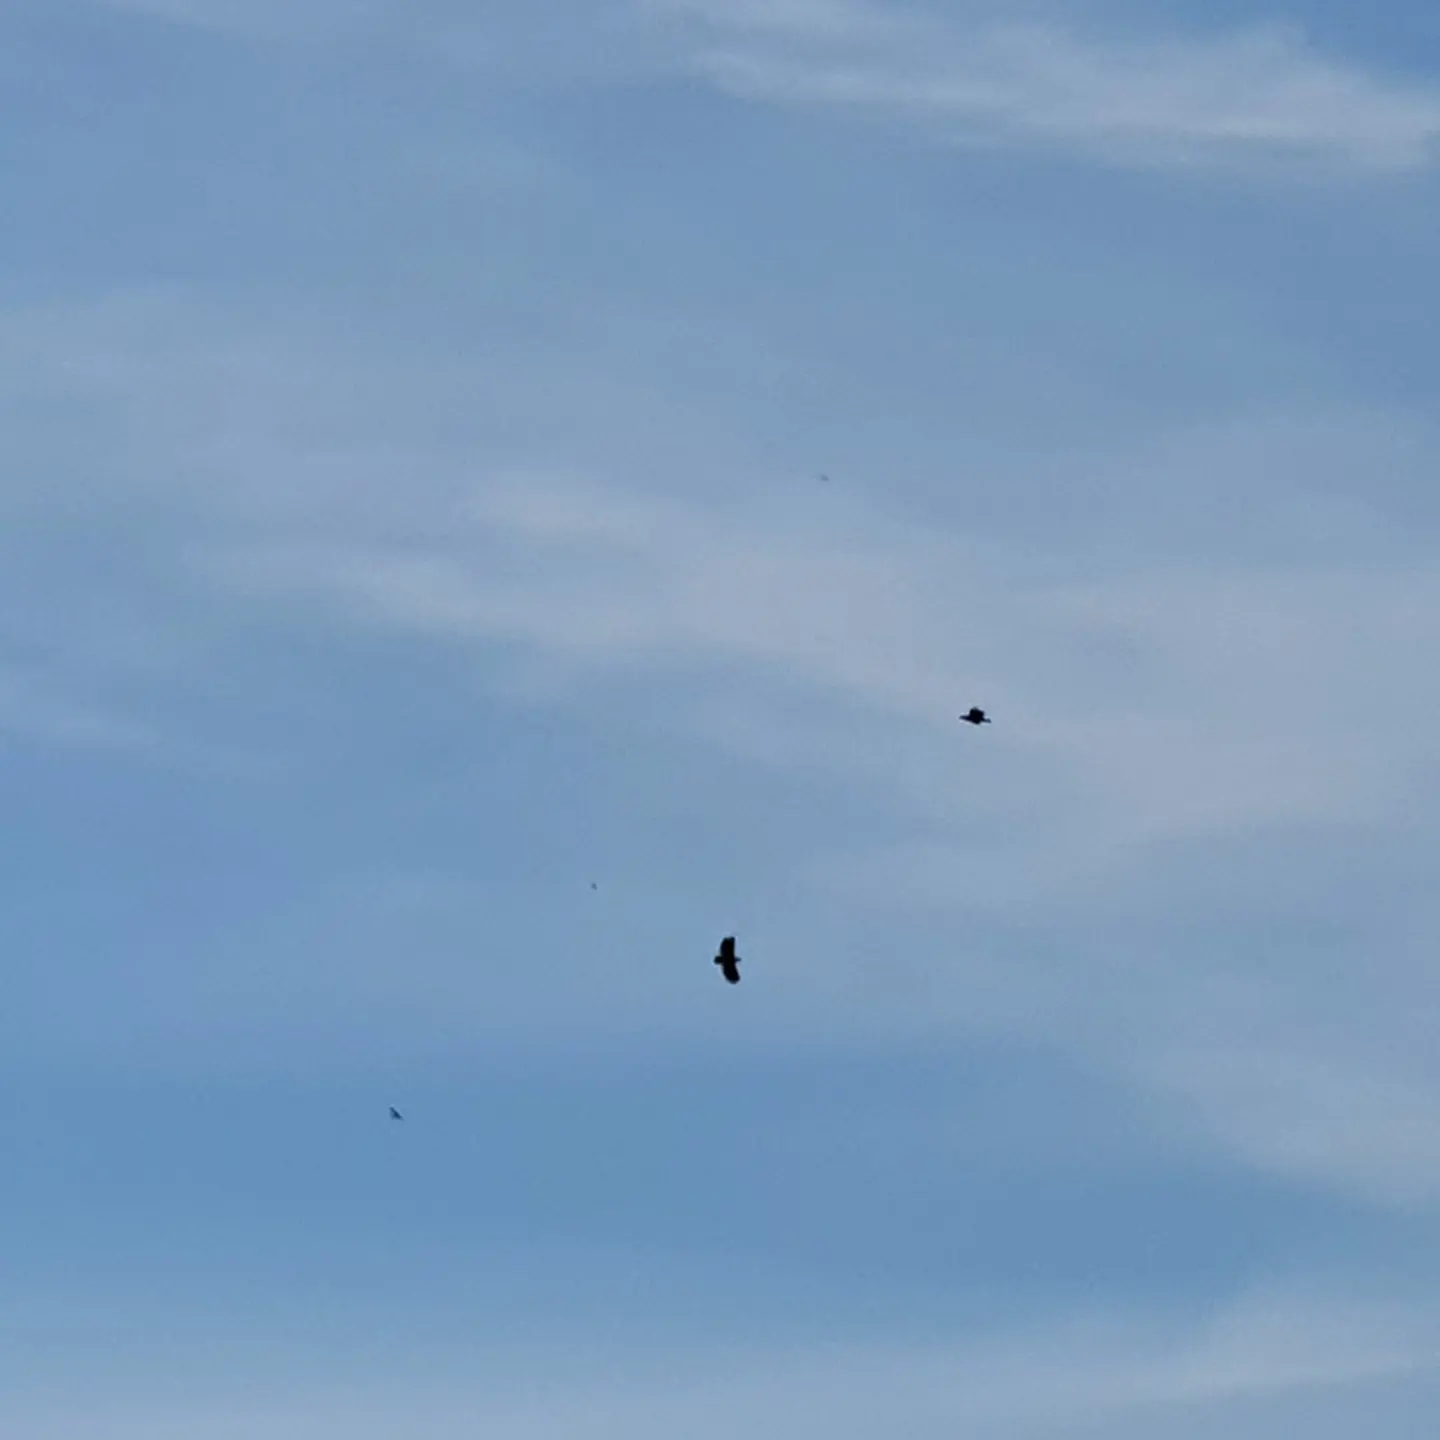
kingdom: Animalia
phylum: Chordata
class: Aves
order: Accipitriformes
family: Accipitridae
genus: Haliaeetus
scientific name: Haliaeetus albicilla
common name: Havørn
